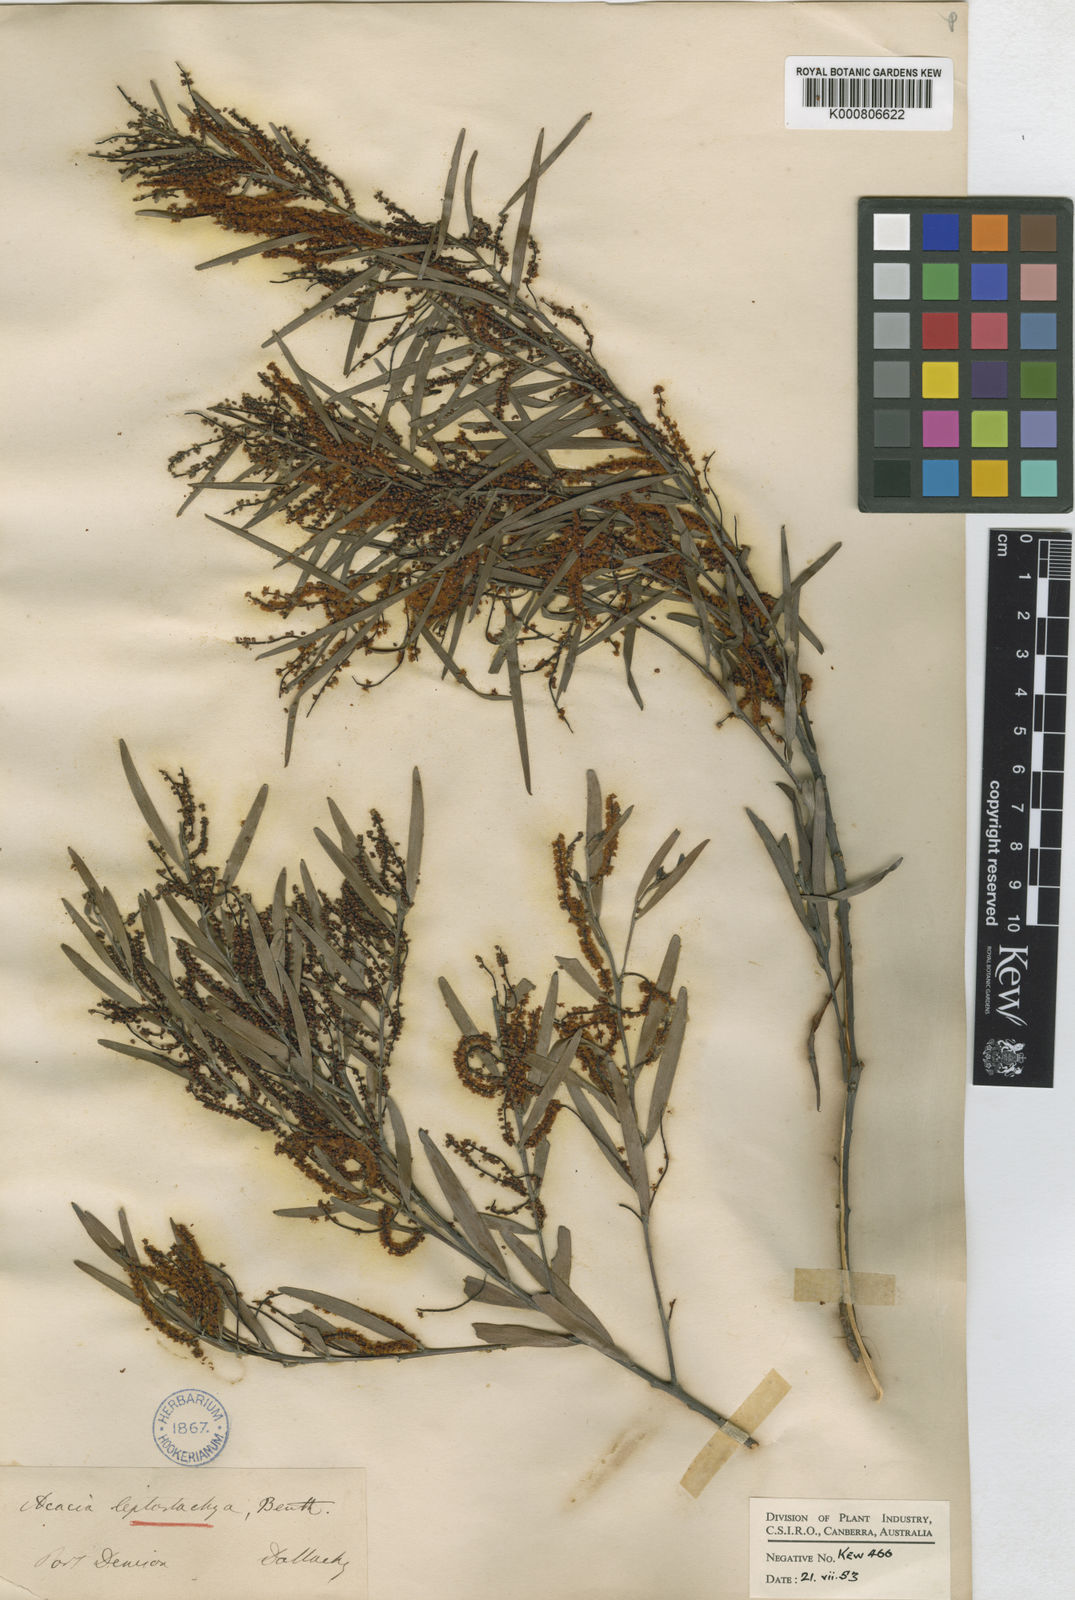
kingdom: Plantae
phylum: Tracheophyta
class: Magnoliopsida
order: Fabales
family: Fabaceae
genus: Acacia
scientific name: Acacia leptostachya
